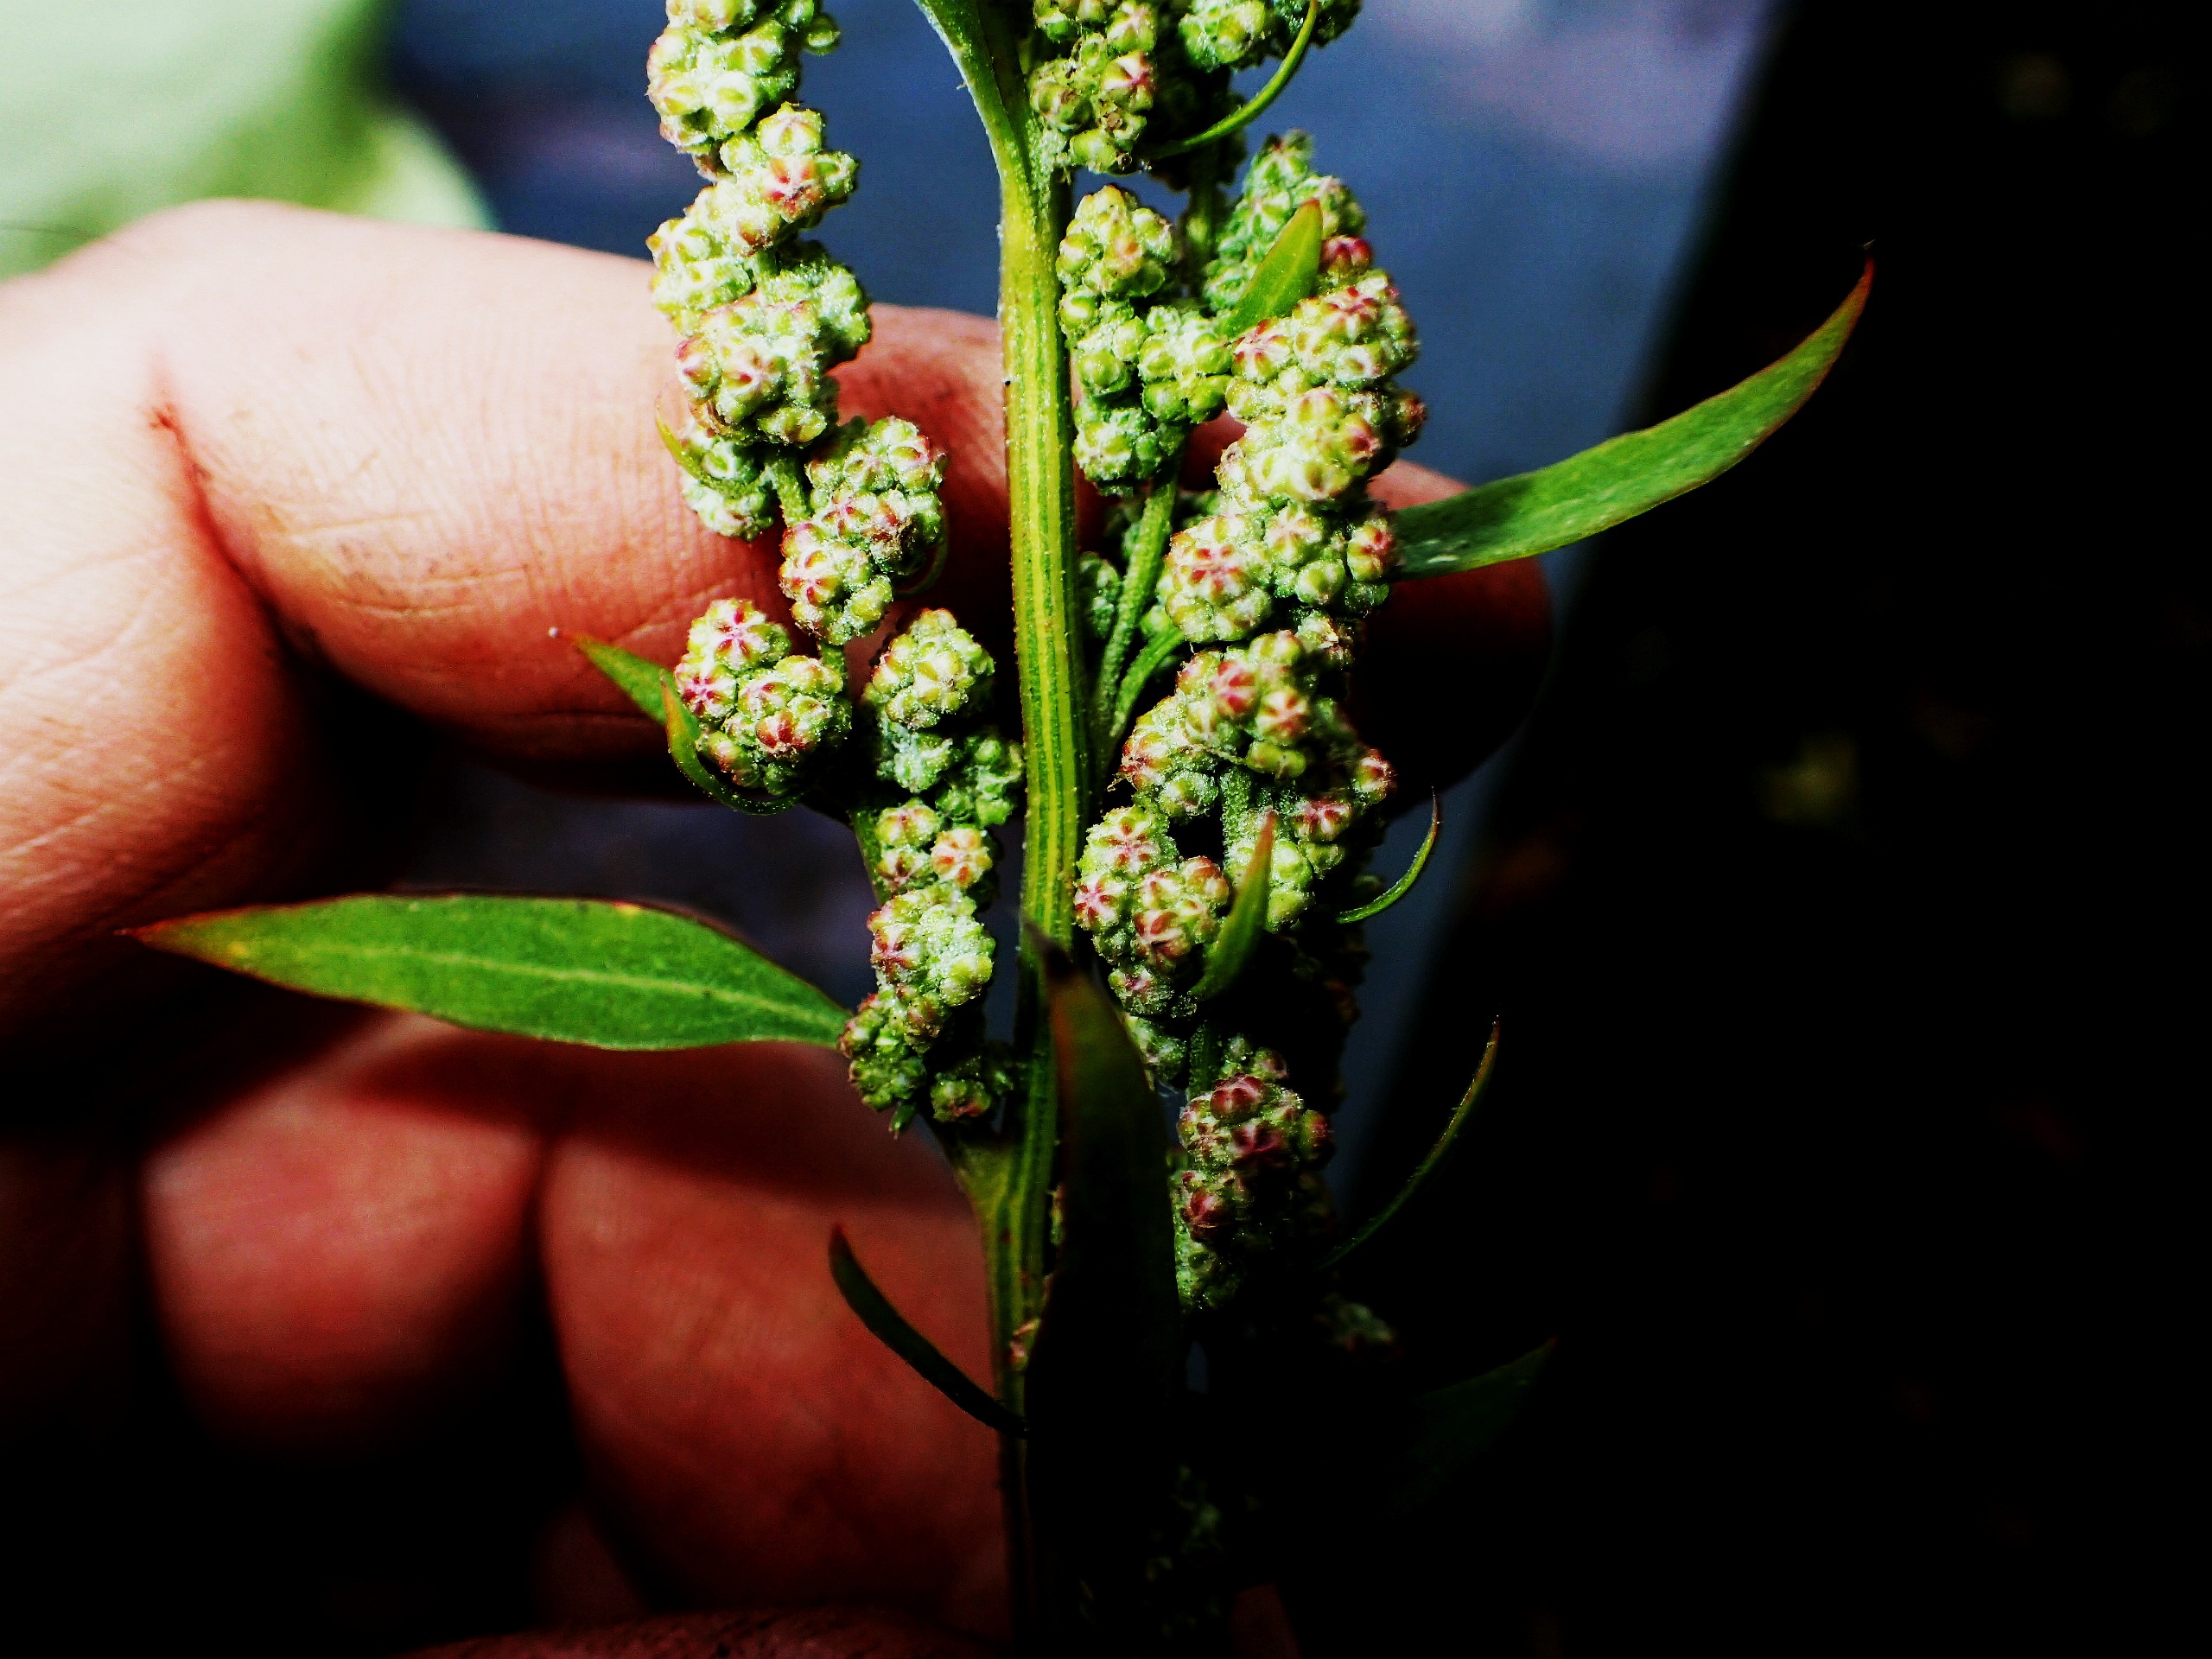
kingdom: Plantae
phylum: Tracheophyta
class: Magnoliopsida
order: Caryophyllales
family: Amaranthaceae
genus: Chenopodium
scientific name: Chenopodium album
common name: Hvidmelet gåsefod
